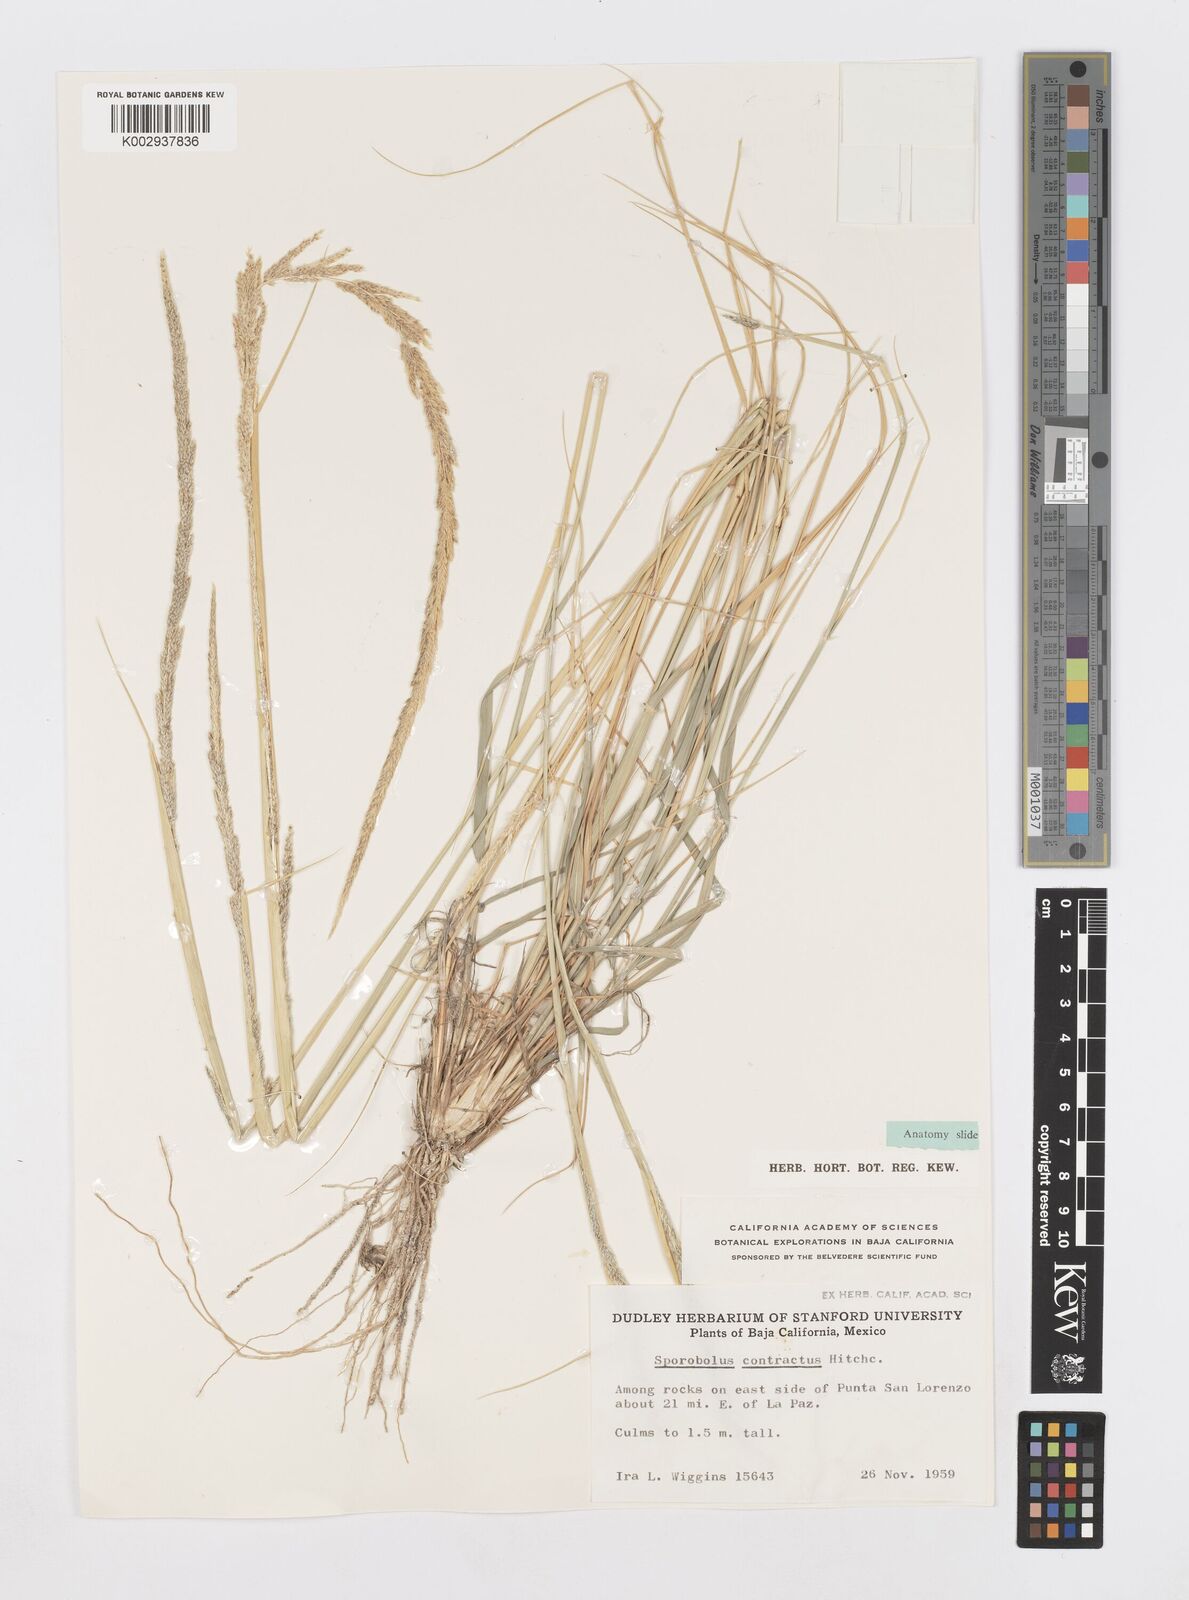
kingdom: Plantae
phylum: Tracheophyta
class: Liliopsida
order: Poales
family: Poaceae
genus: Sporobolus
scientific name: Sporobolus contractus
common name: Spike dropseed
